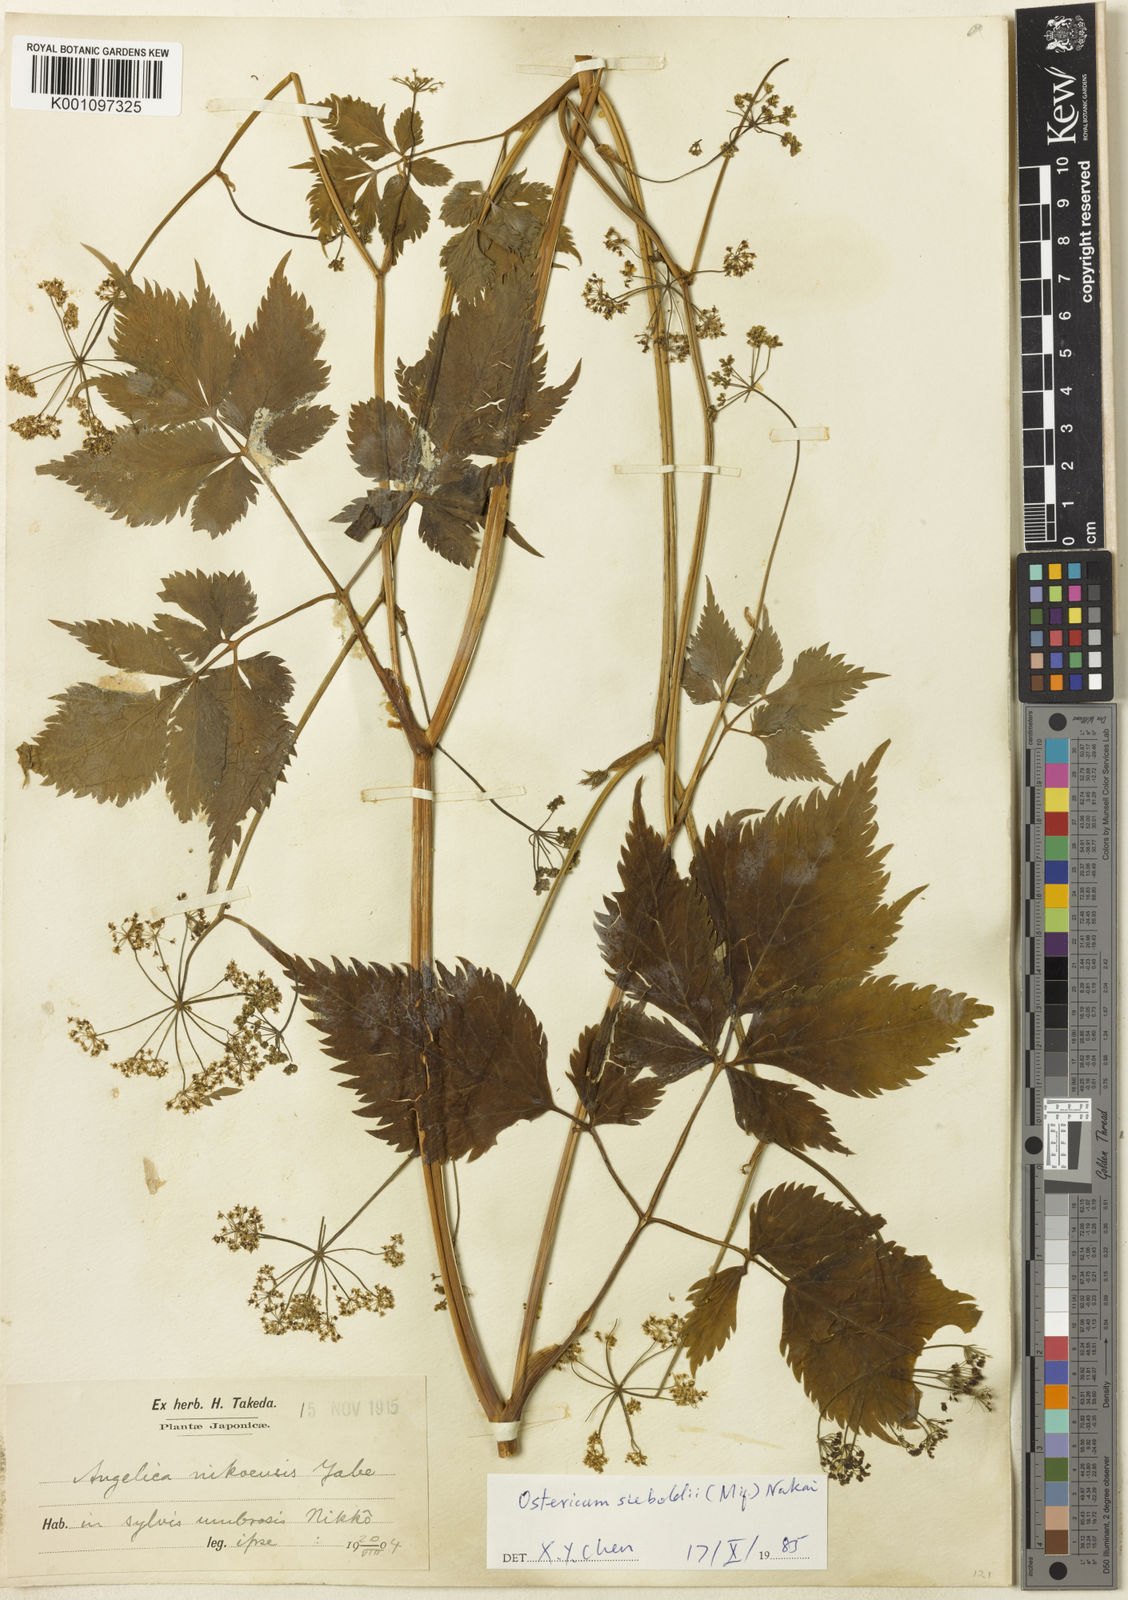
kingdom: Plantae
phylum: Tracheophyta
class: Magnoliopsida
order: Apiales
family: Apiaceae
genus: Angelica
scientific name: Angelica hakonensis
